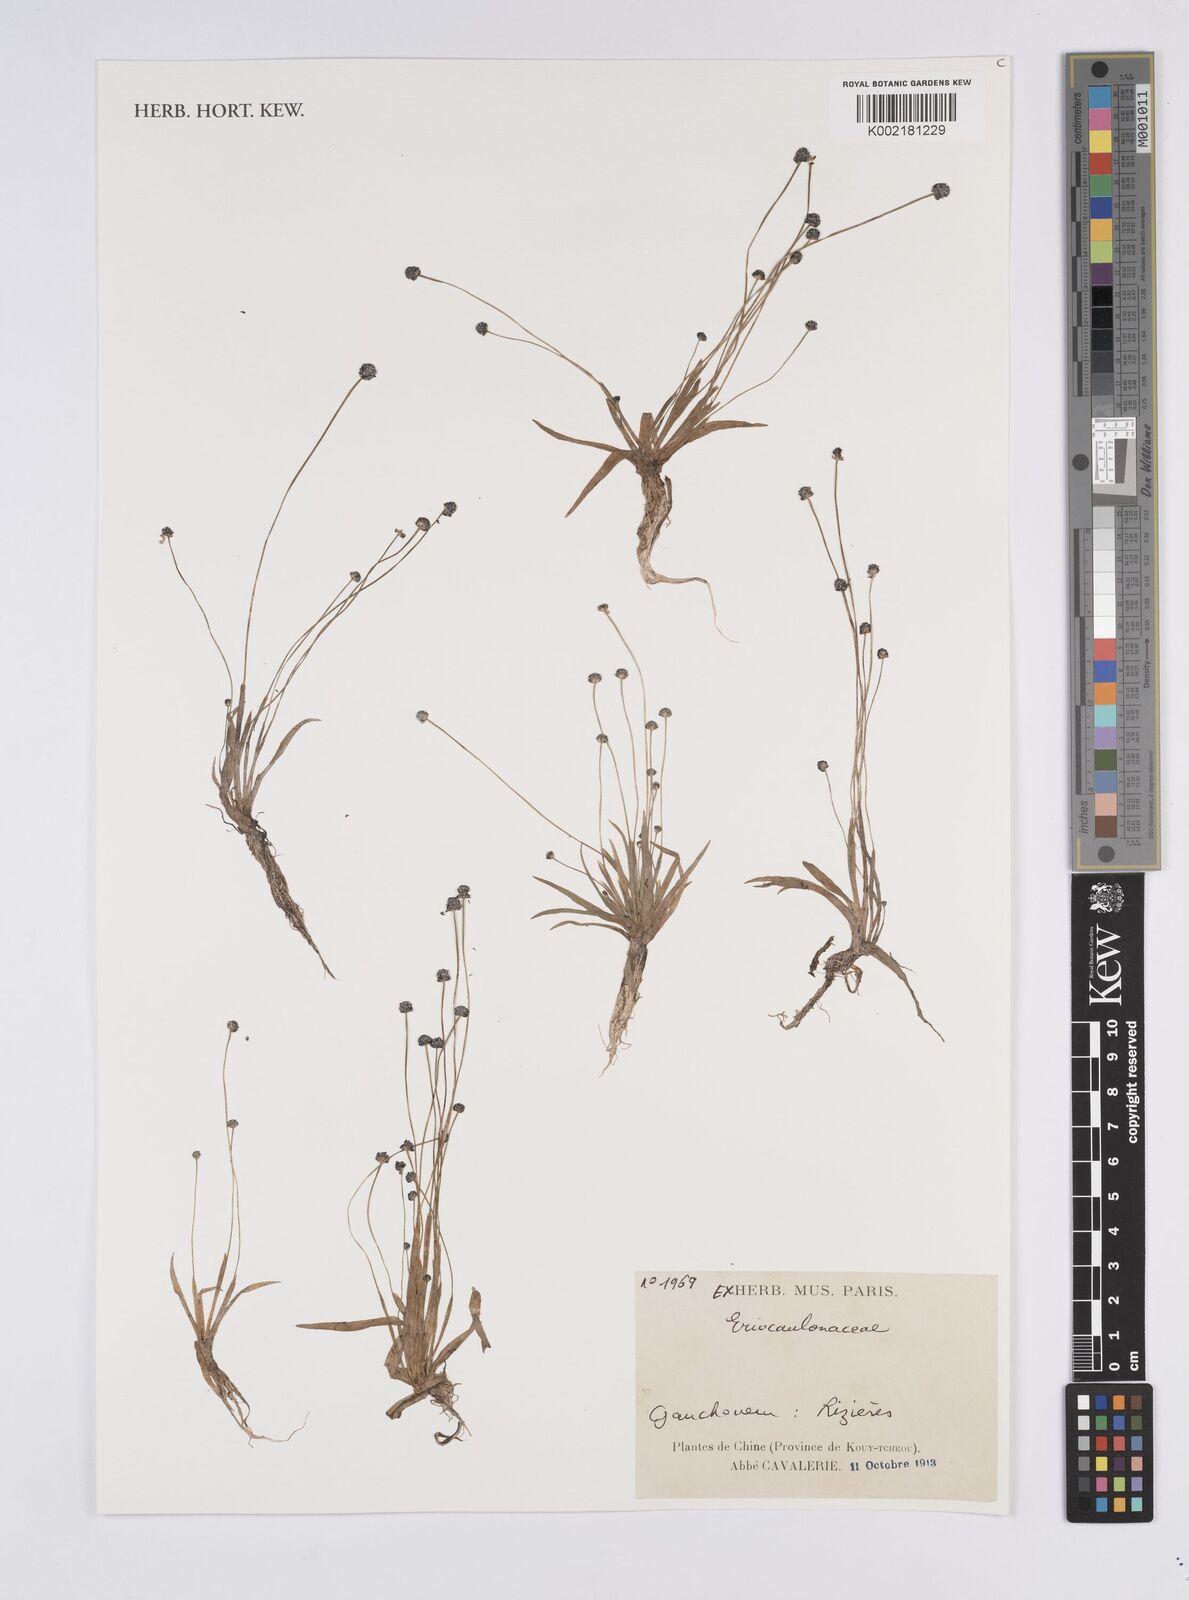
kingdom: Plantae
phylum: Tracheophyta
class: Liliopsida
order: Poales
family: Eriocaulaceae
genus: Eriocaulon
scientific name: Eriocaulon
